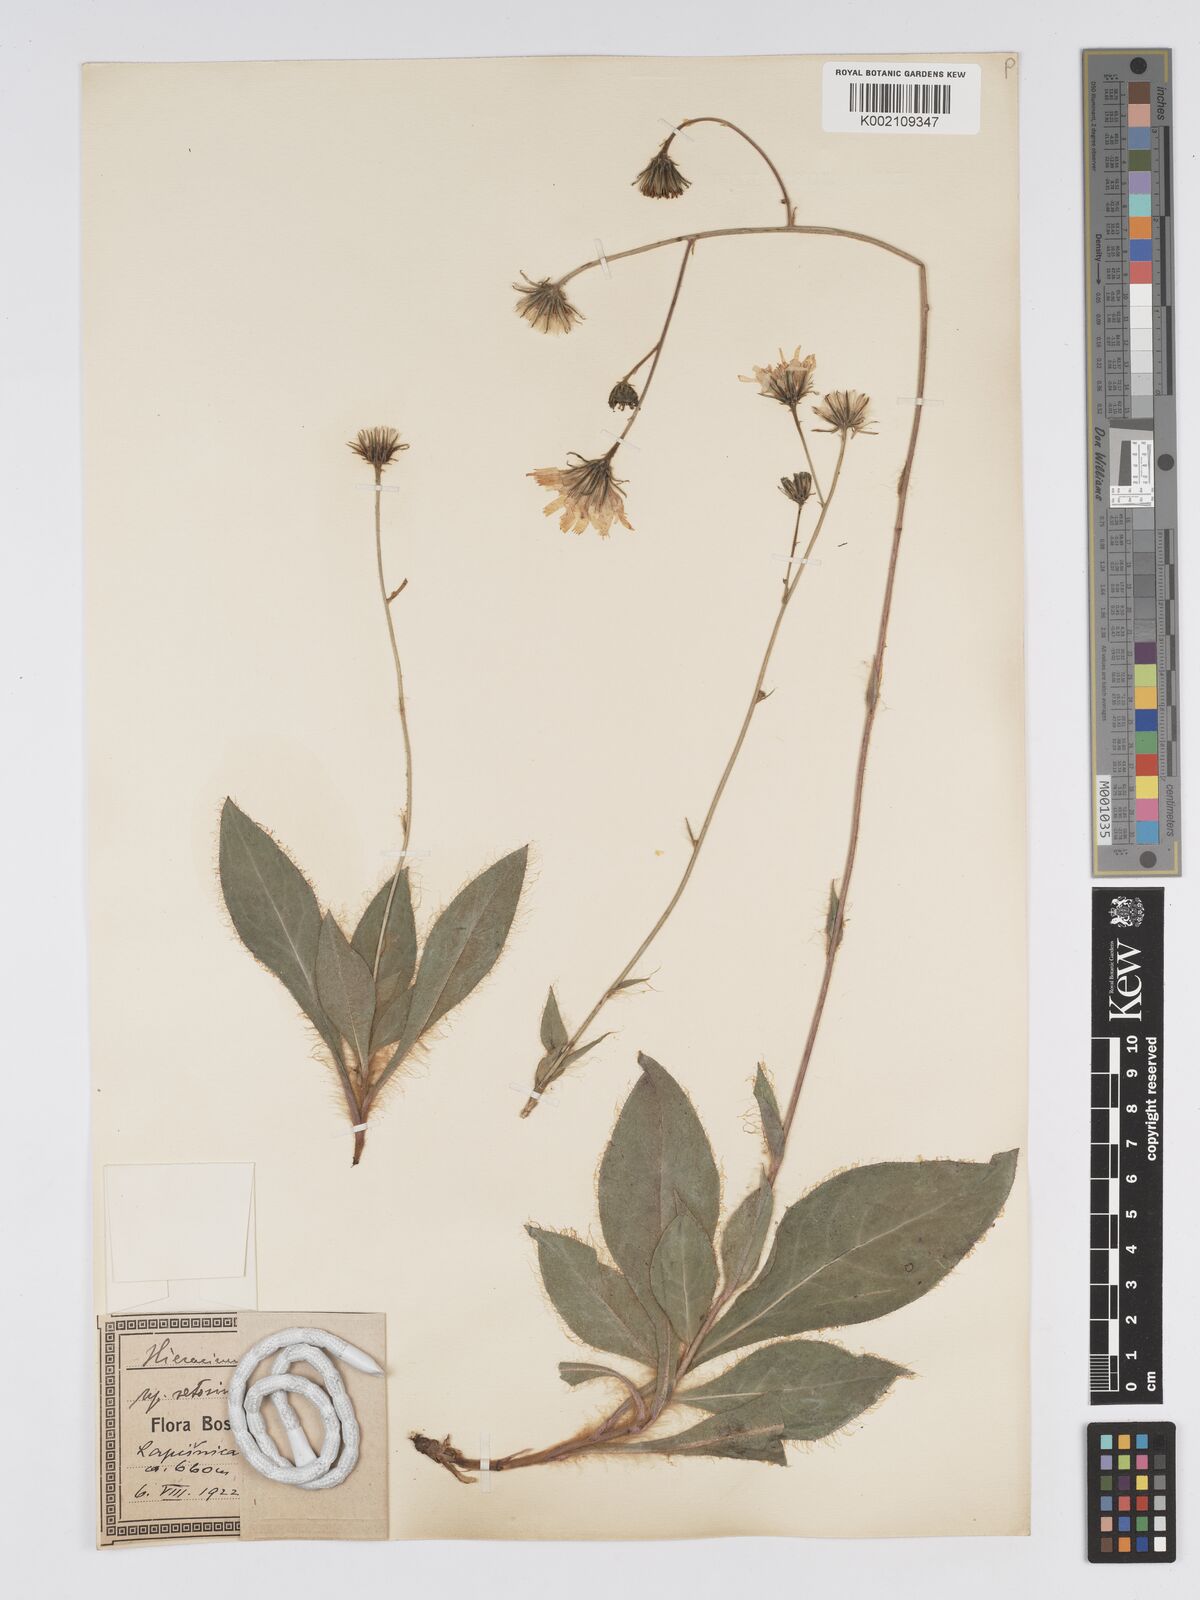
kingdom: Plantae
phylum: Tracheophyta
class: Magnoliopsida
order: Asterales
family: Asteraceae
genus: Hieracium
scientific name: Hieracium tommasinianum
